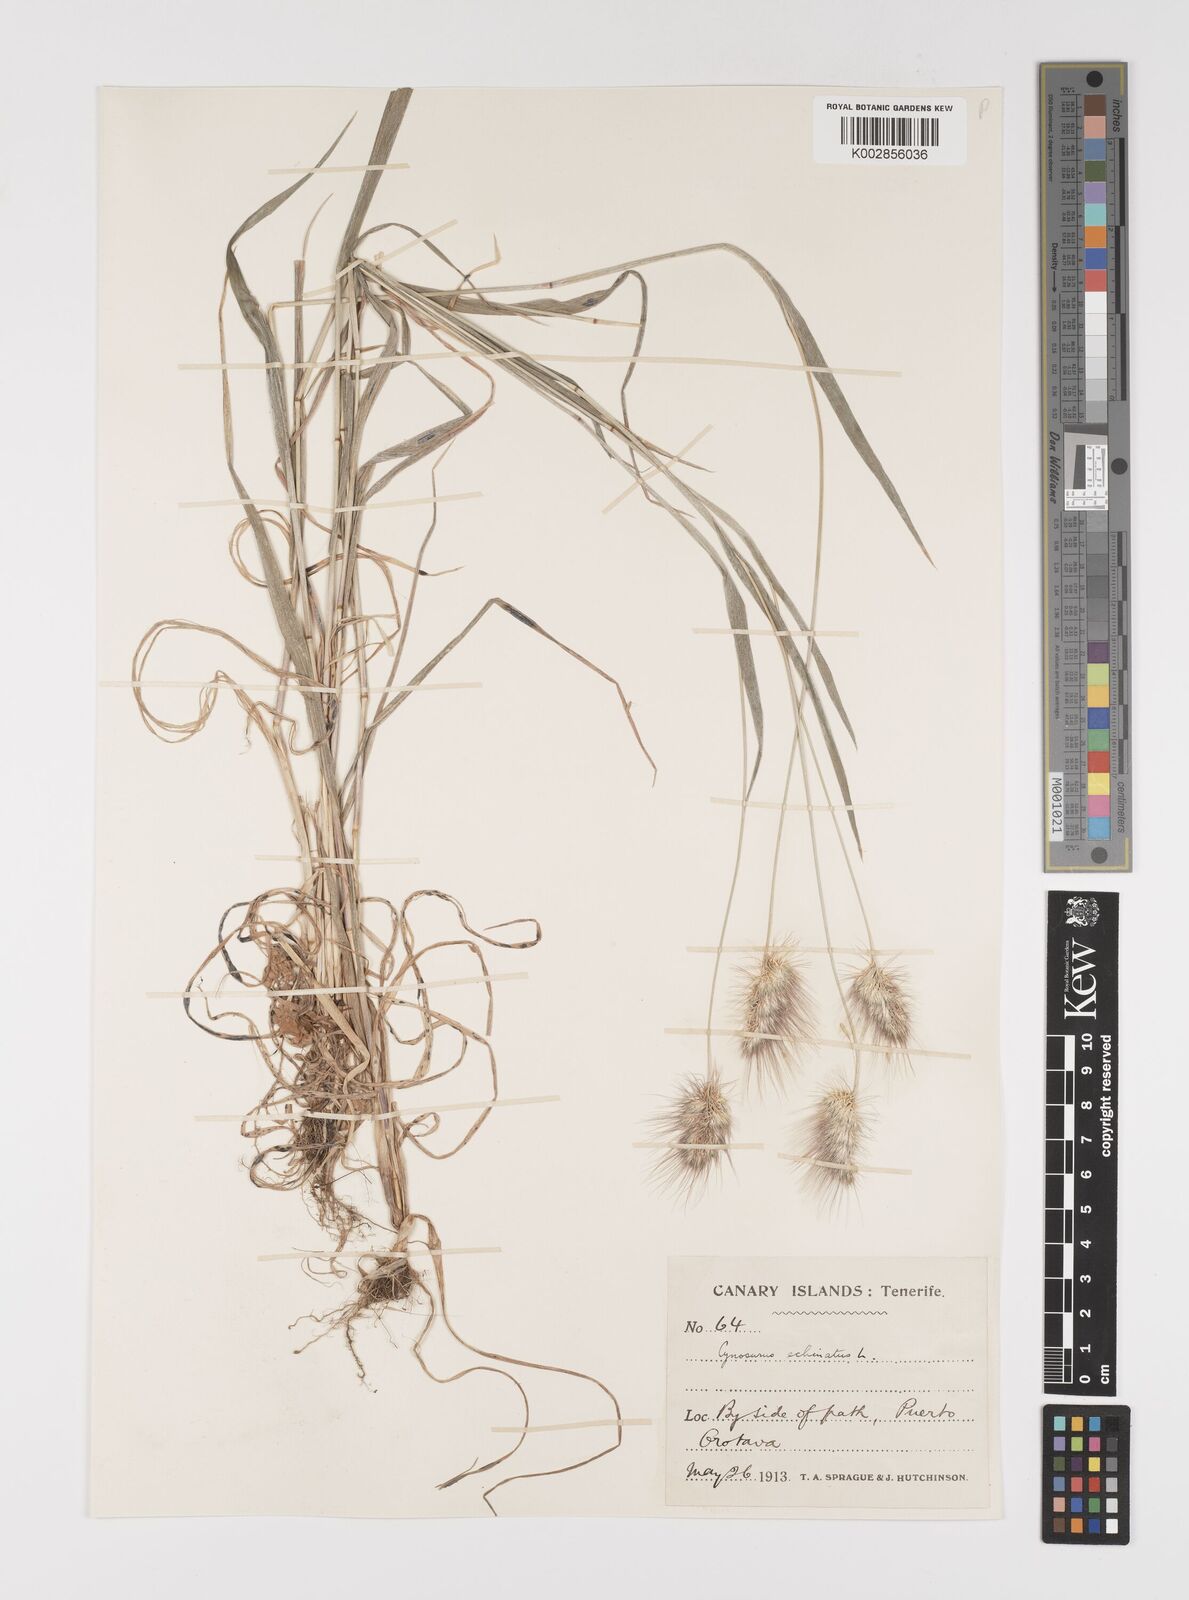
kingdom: Plantae
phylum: Tracheophyta
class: Liliopsida
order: Poales
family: Poaceae
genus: Cynosurus
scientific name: Cynosurus echinatus
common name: Rough dog's-tail
